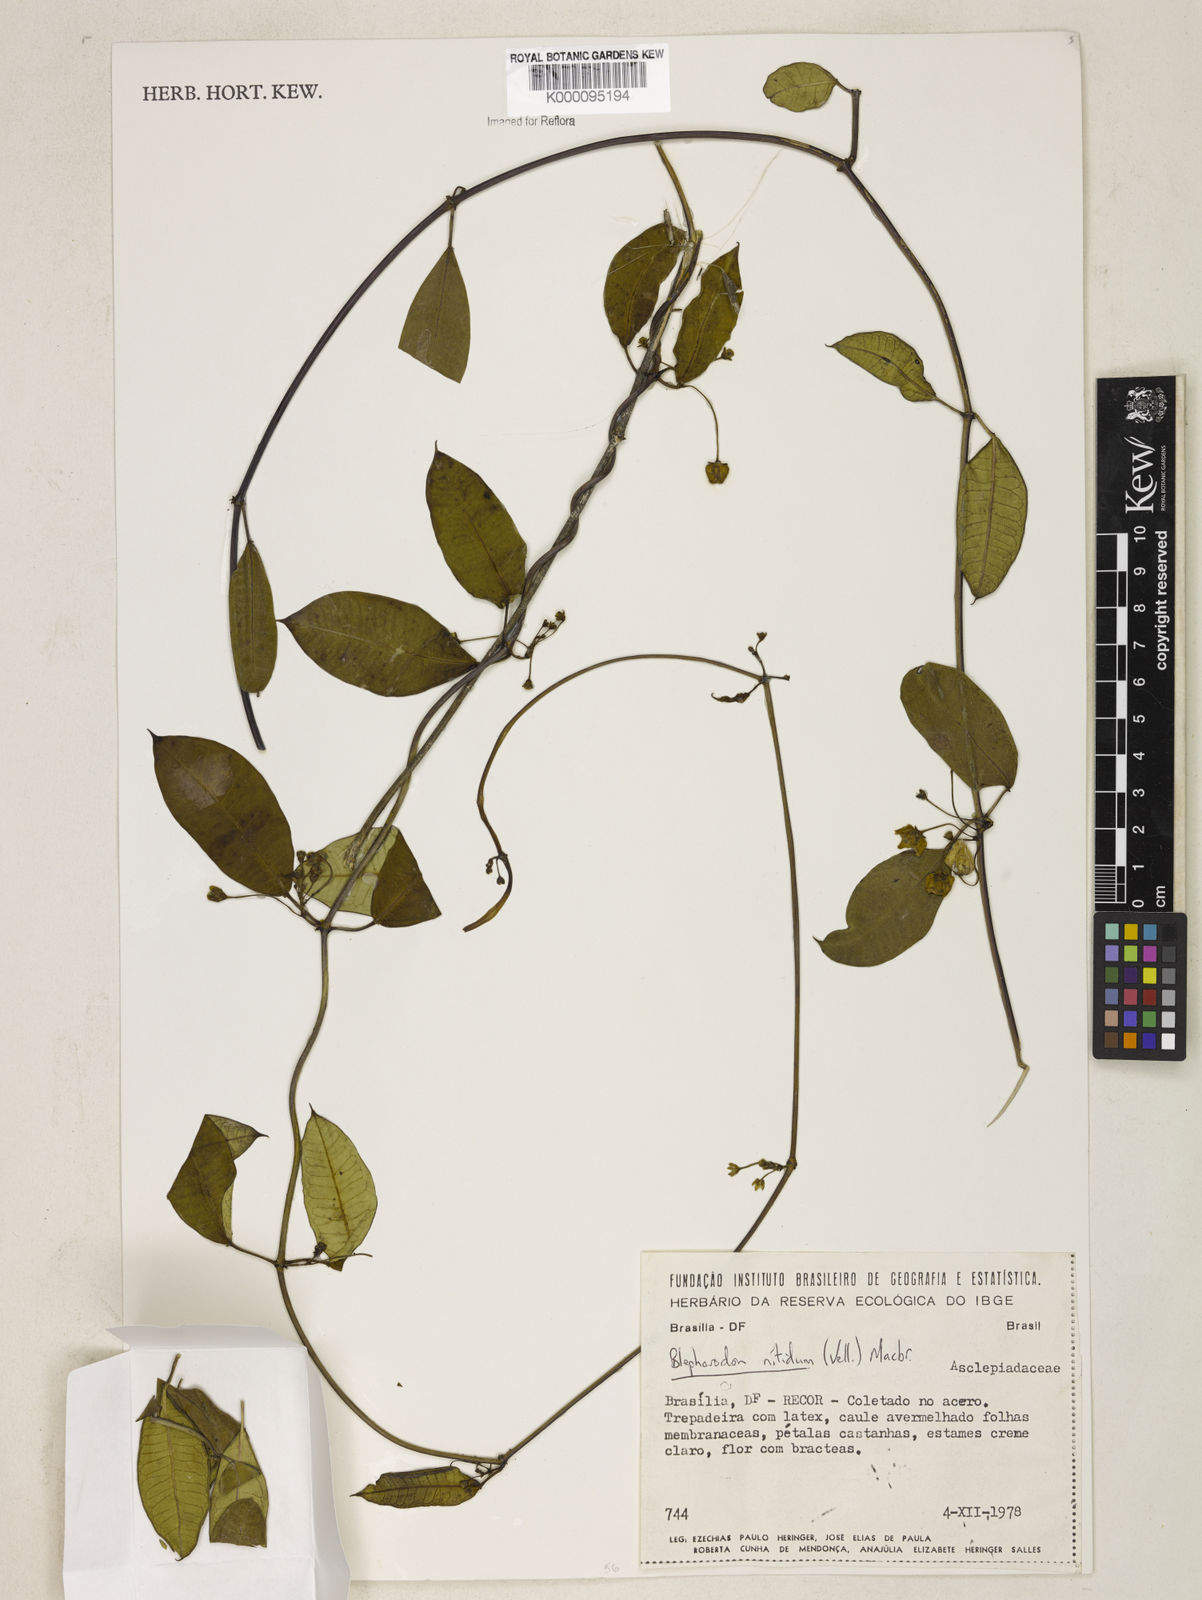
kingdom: Plantae
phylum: Tracheophyta
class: Magnoliopsida
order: Gentianales
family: Apocynaceae
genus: Blepharodon
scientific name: Blepharodon pictum
